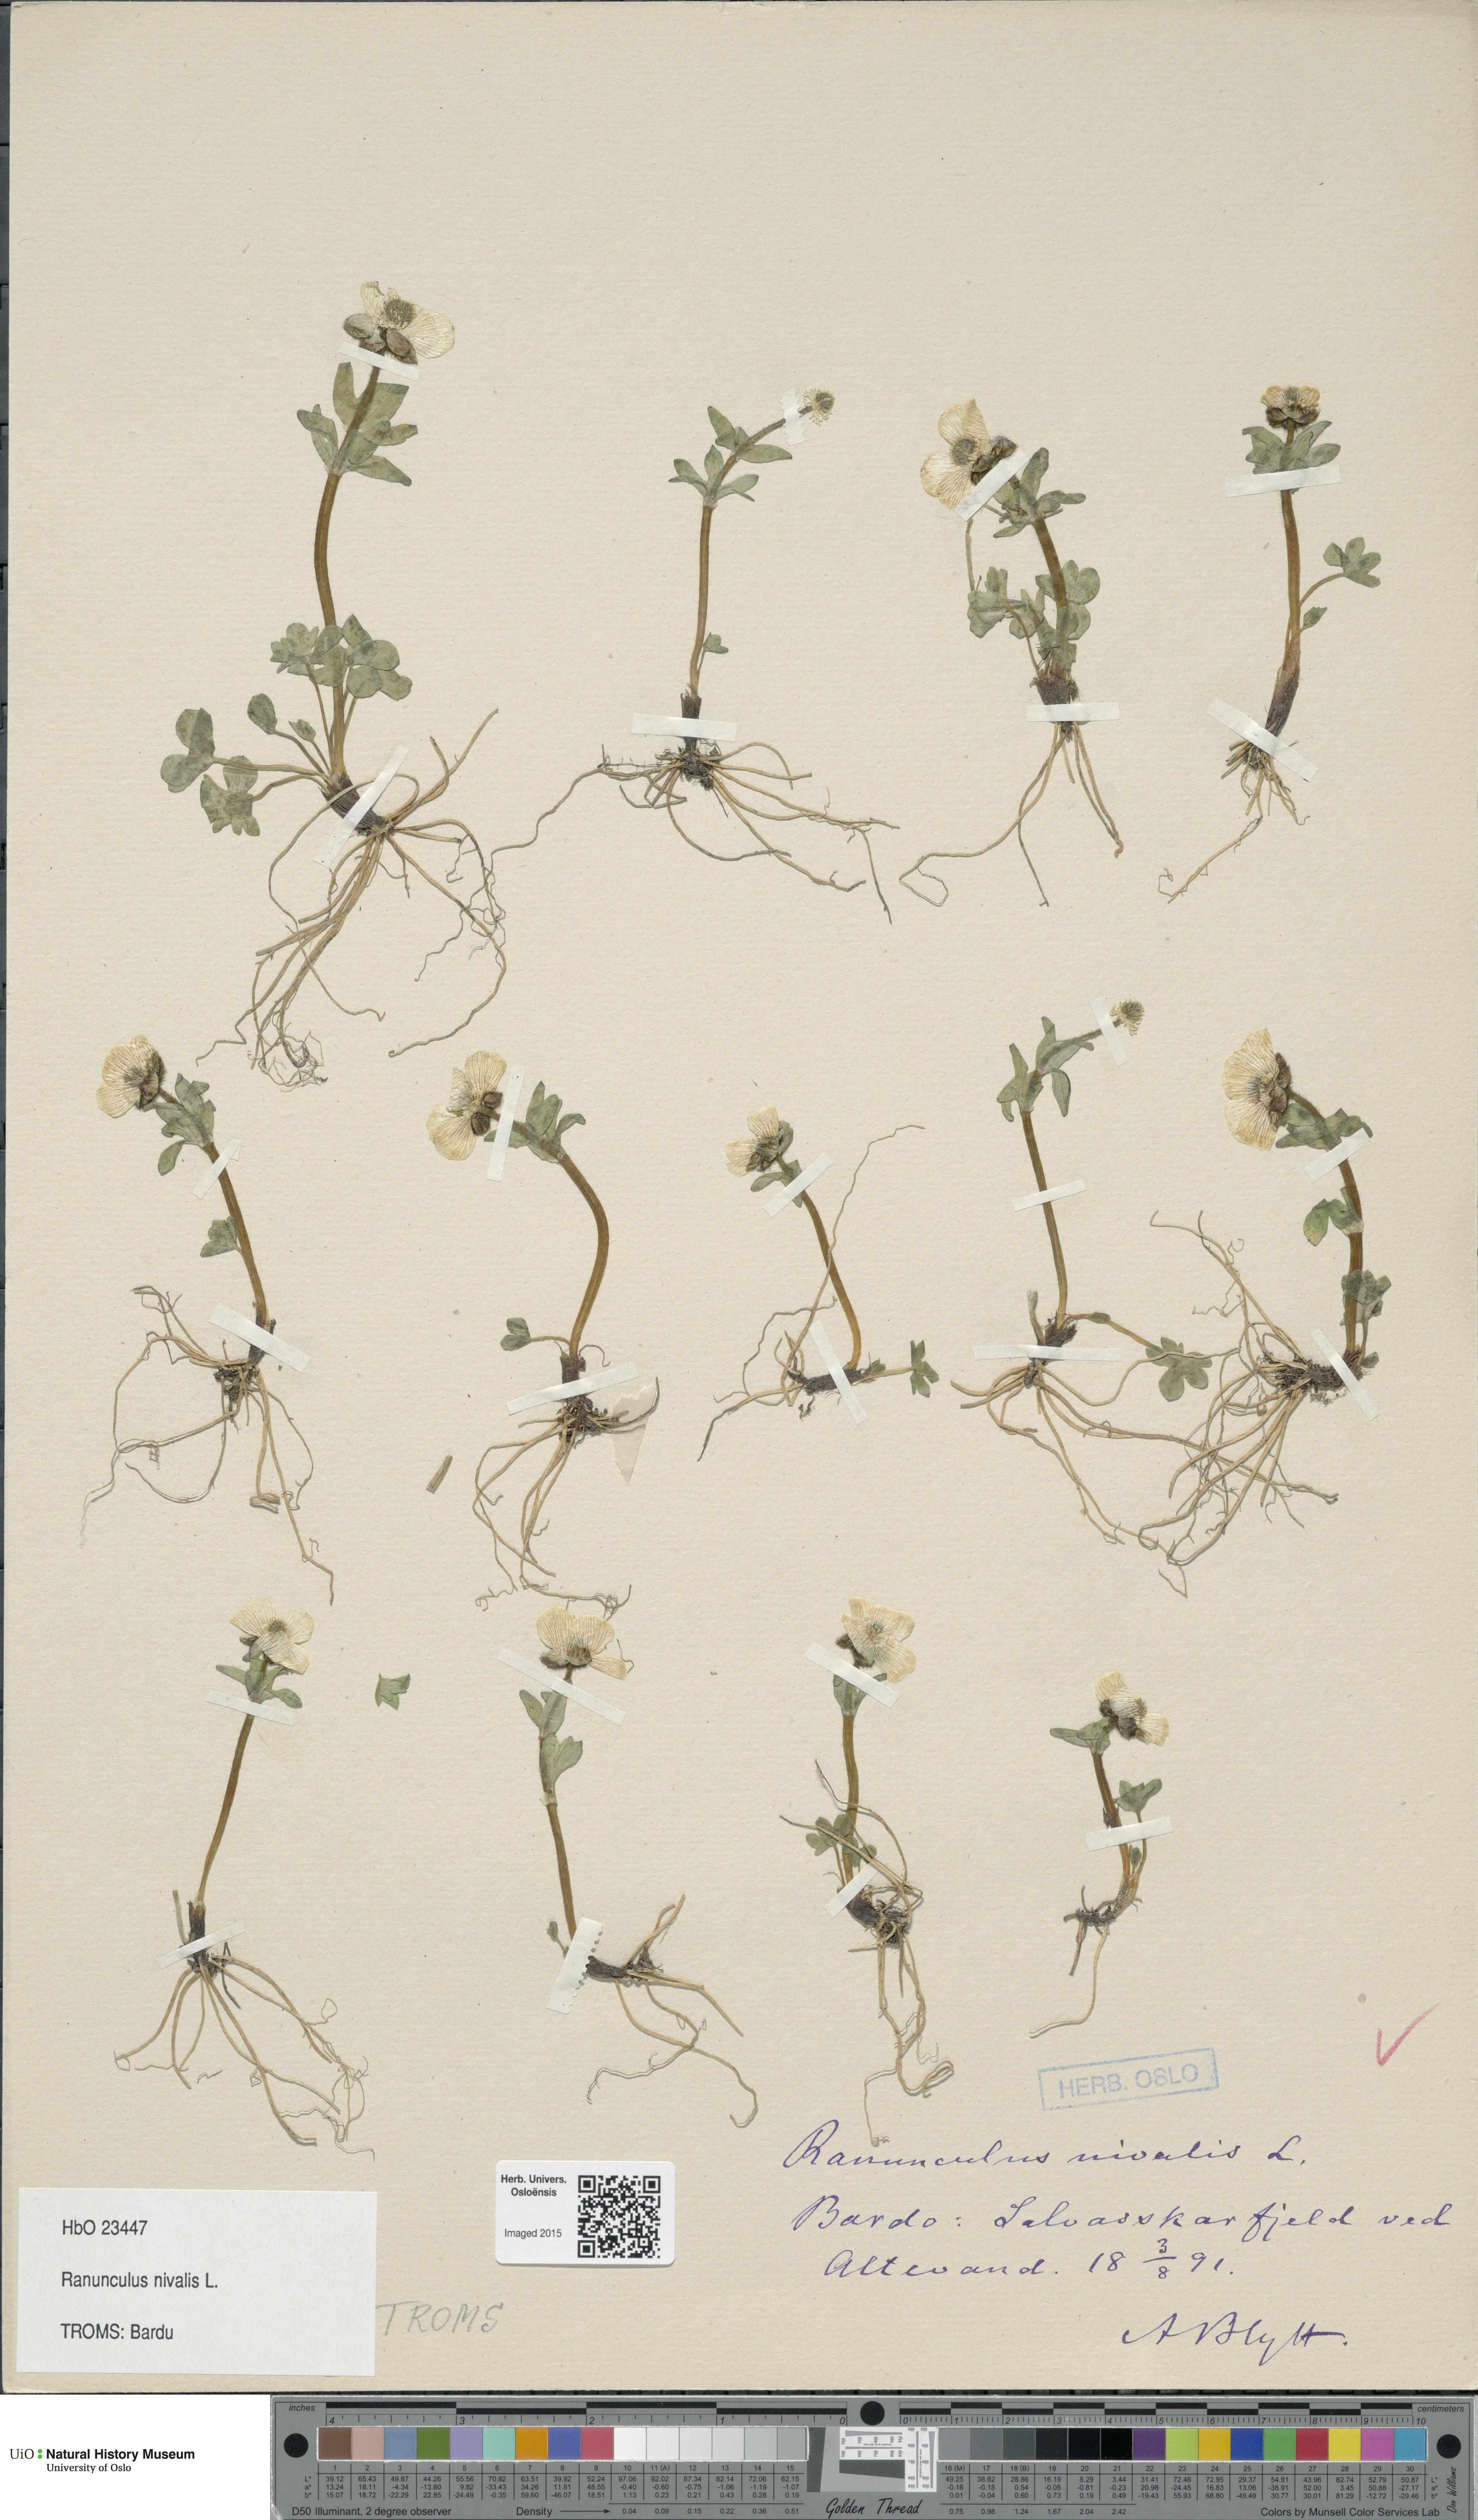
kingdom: Plantae
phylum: Tracheophyta
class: Magnoliopsida
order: Ranunculales
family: Ranunculaceae
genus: Ranunculus
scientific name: Ranunculus nivalis
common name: Snow buttercup
